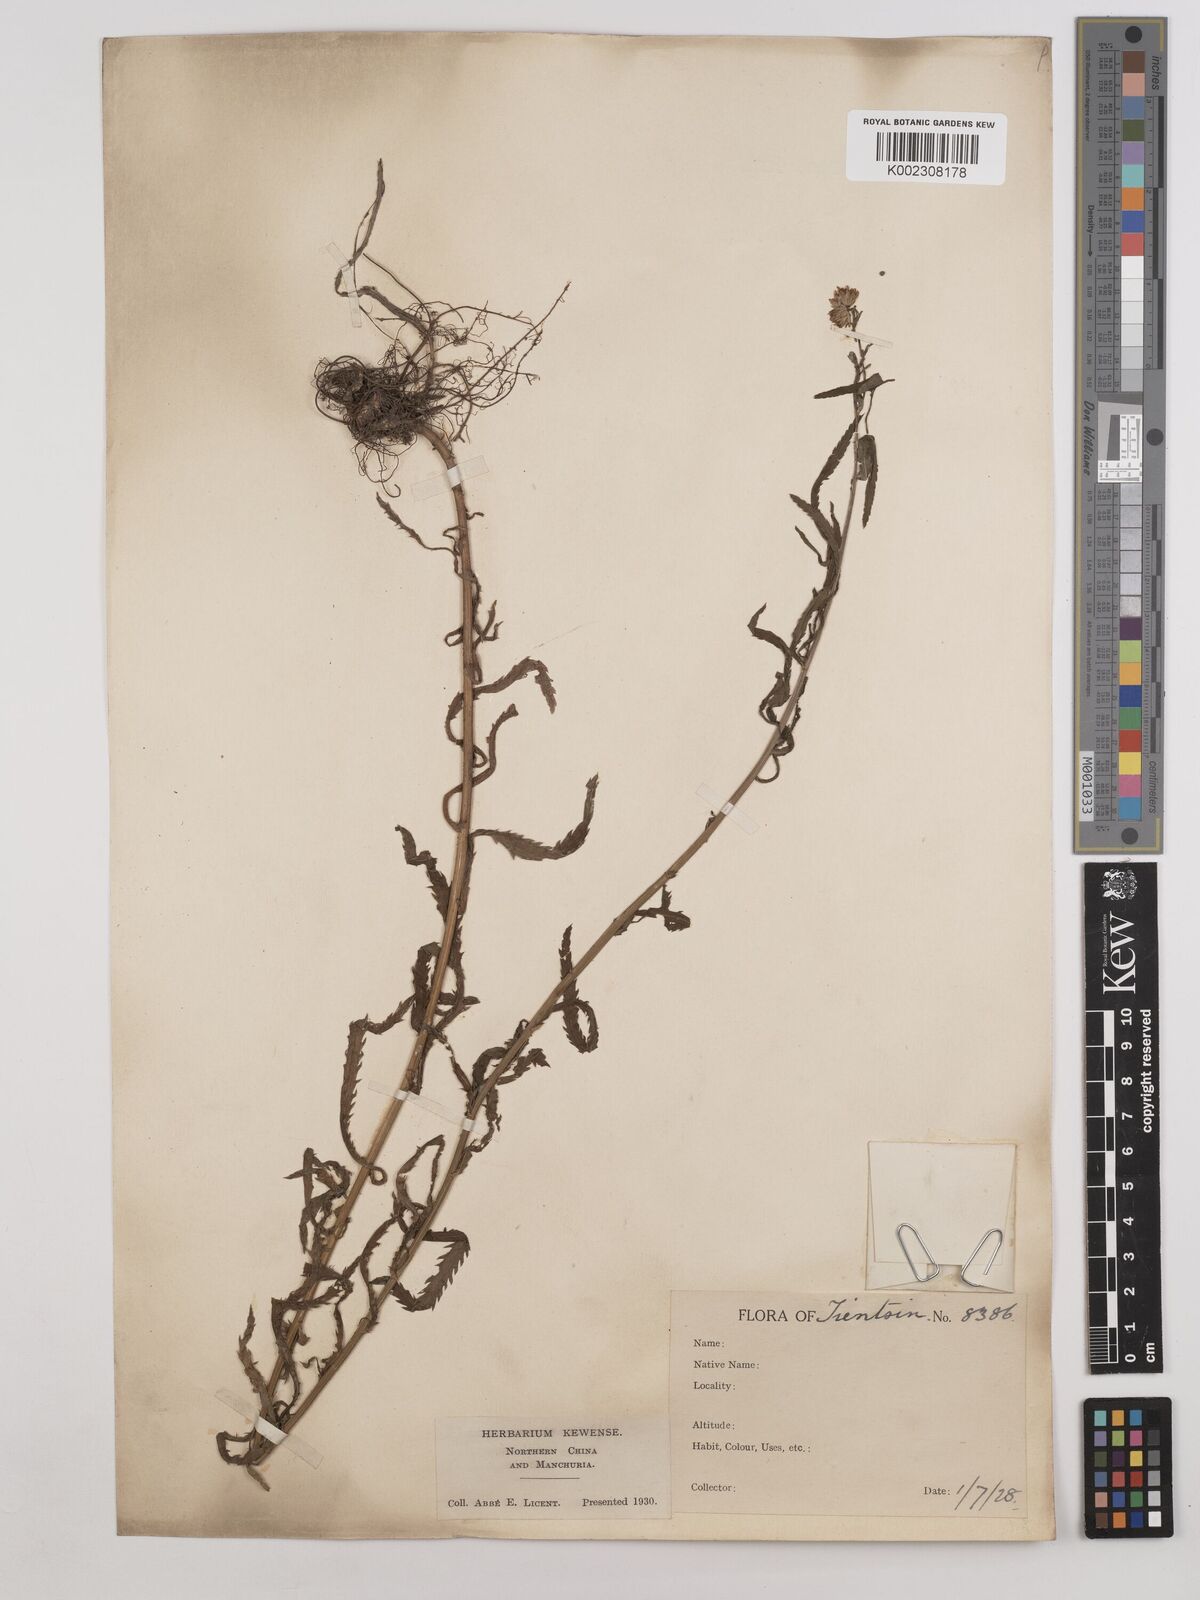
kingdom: Plantae
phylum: Tracheophyta
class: Magnoliopsida
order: Asterales
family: Asteraceae
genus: Achillea
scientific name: Achillea alpina
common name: Siberian yarrow
